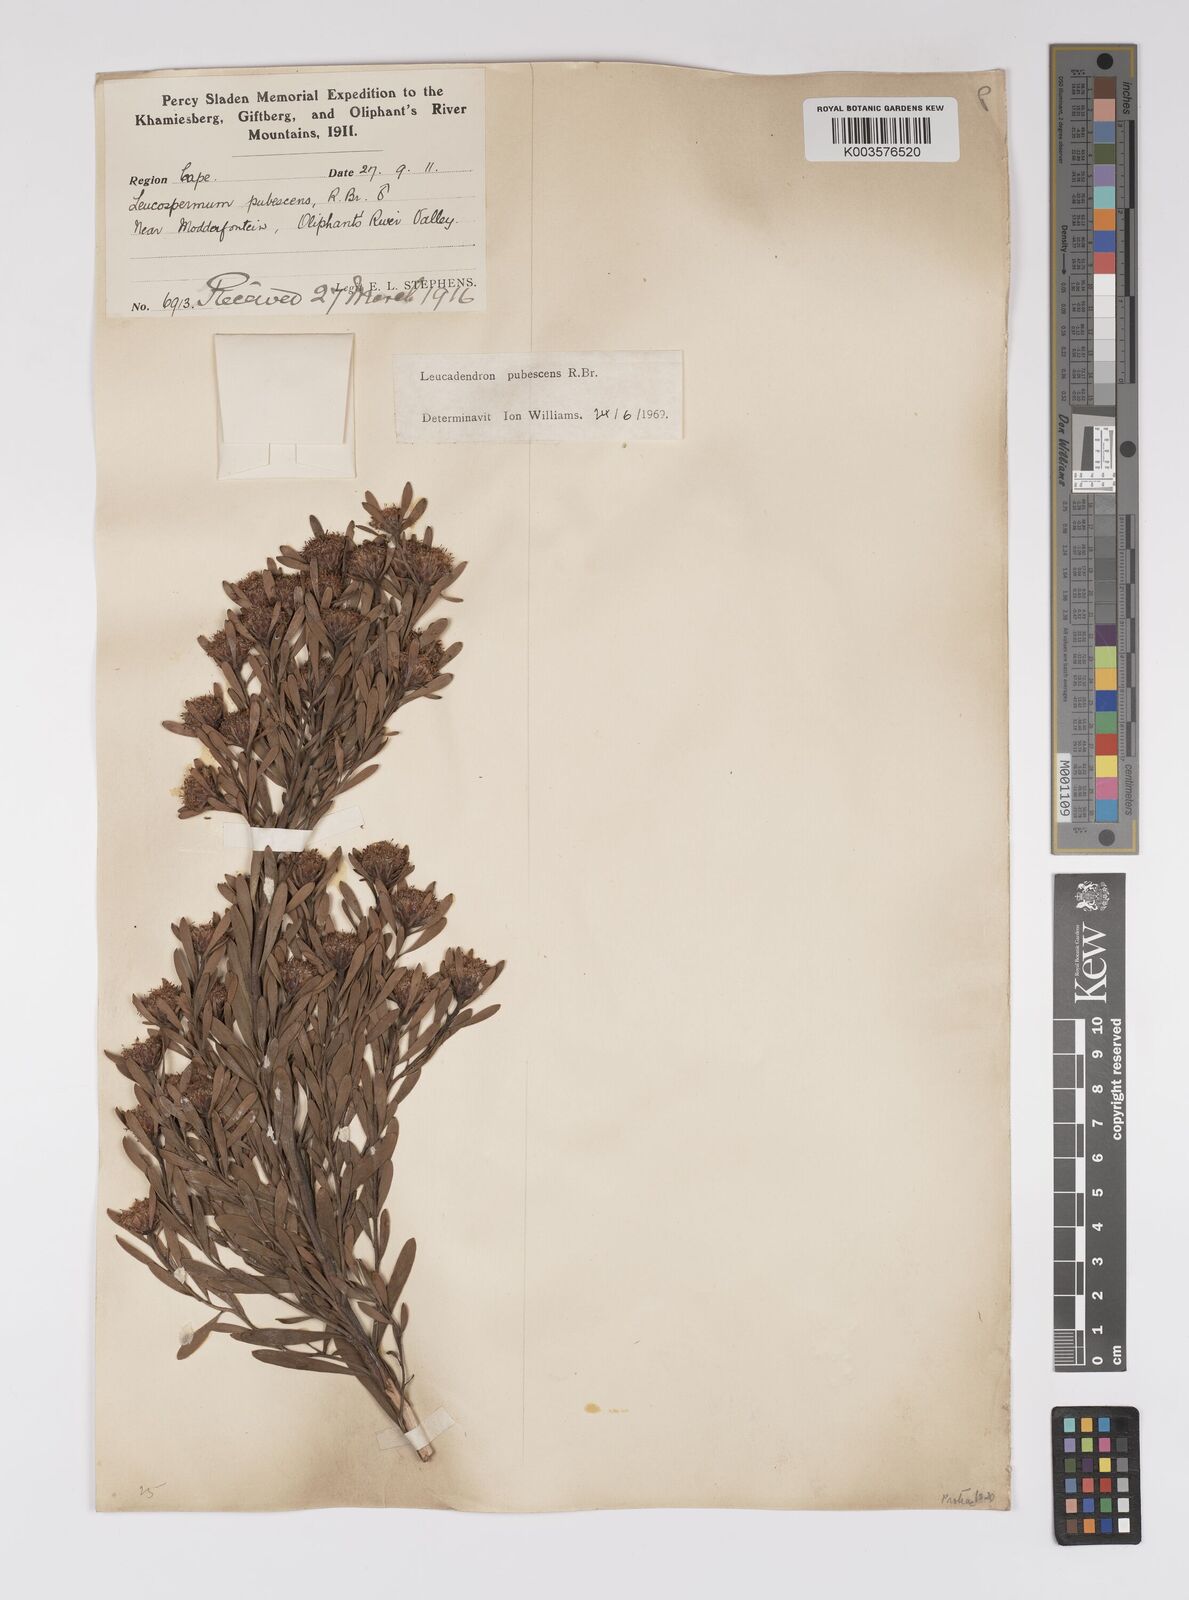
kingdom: Plantae
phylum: Tracheophyta
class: Magnoliopsida
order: Proteales
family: Proteaceae
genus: Leucadendron
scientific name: Leucadendron pubescens
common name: Grey conebush
